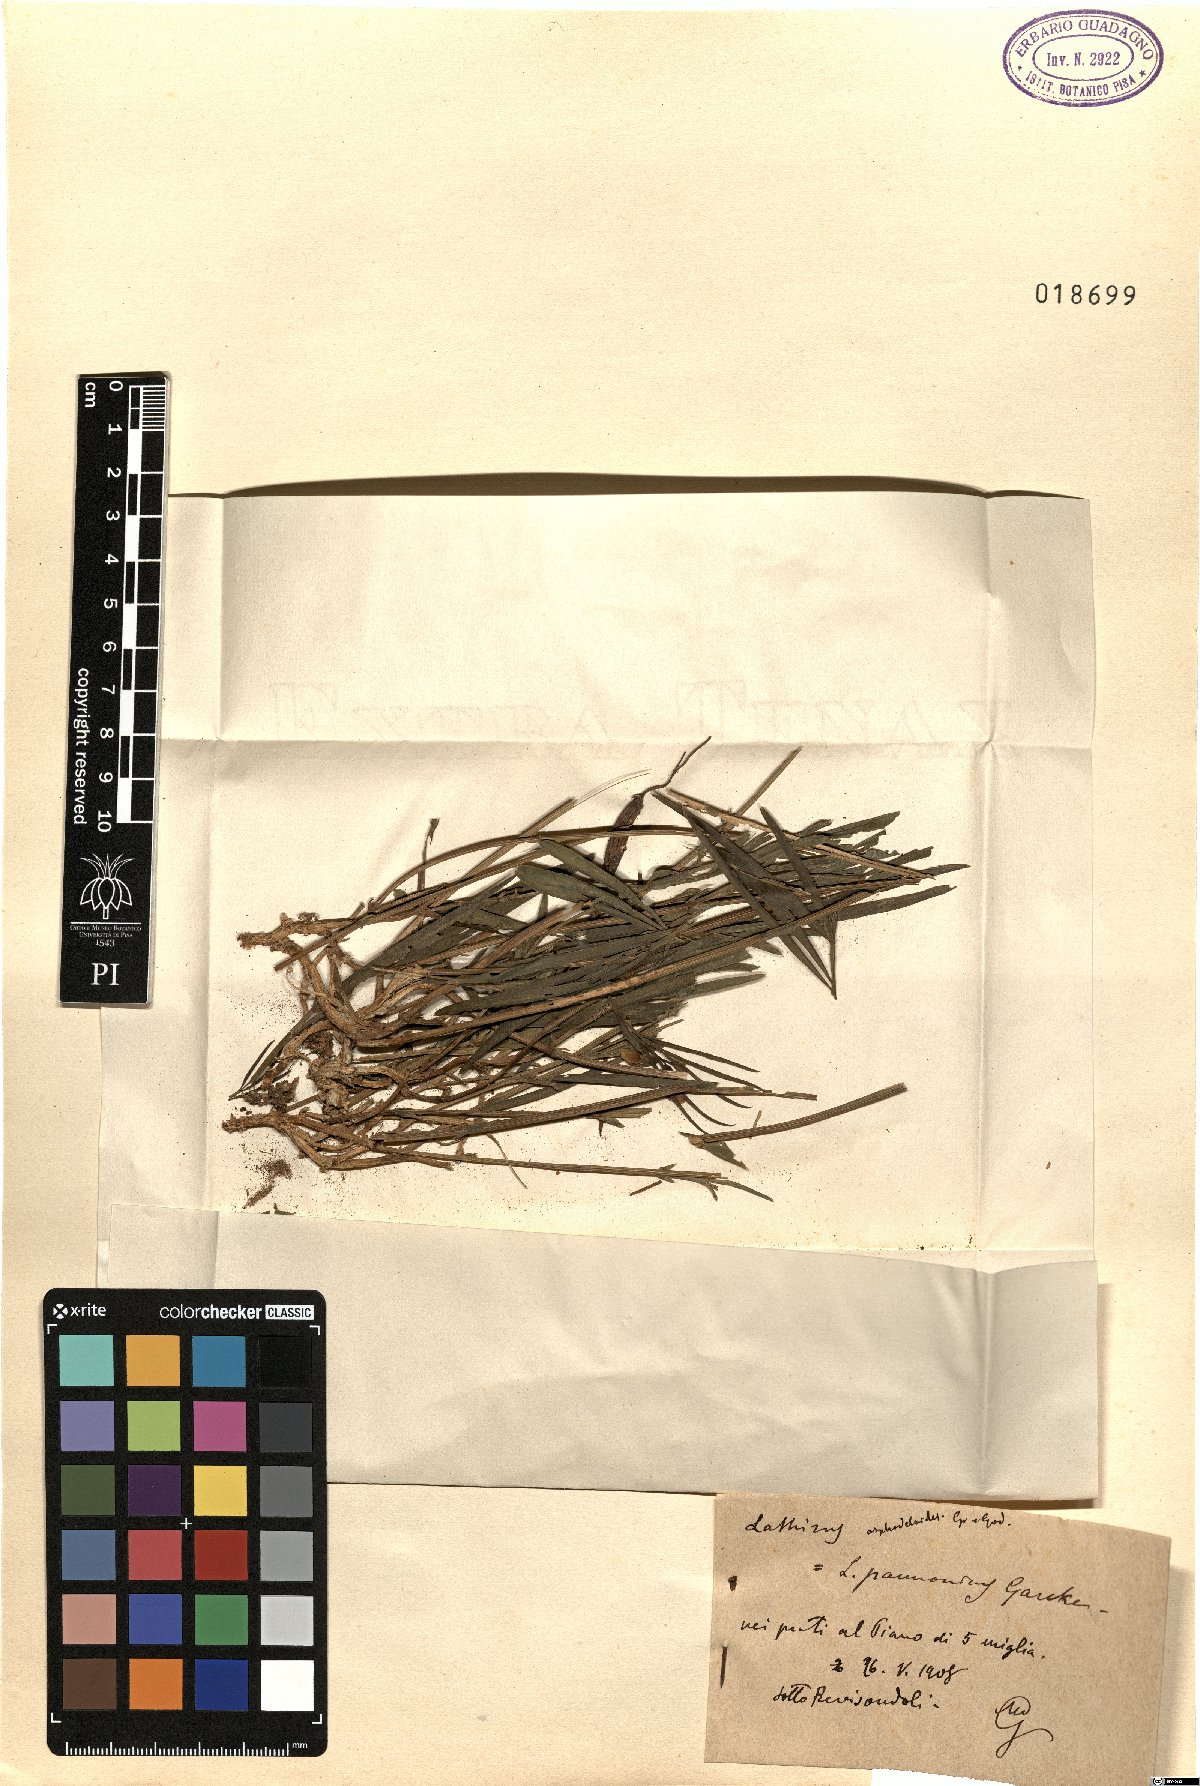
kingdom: Plantae
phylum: Tracheophyta
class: Magnoliopsida
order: Fabales
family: Fabaceae
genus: Lathyrus
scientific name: Lathyrus pannonicus
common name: Pea
